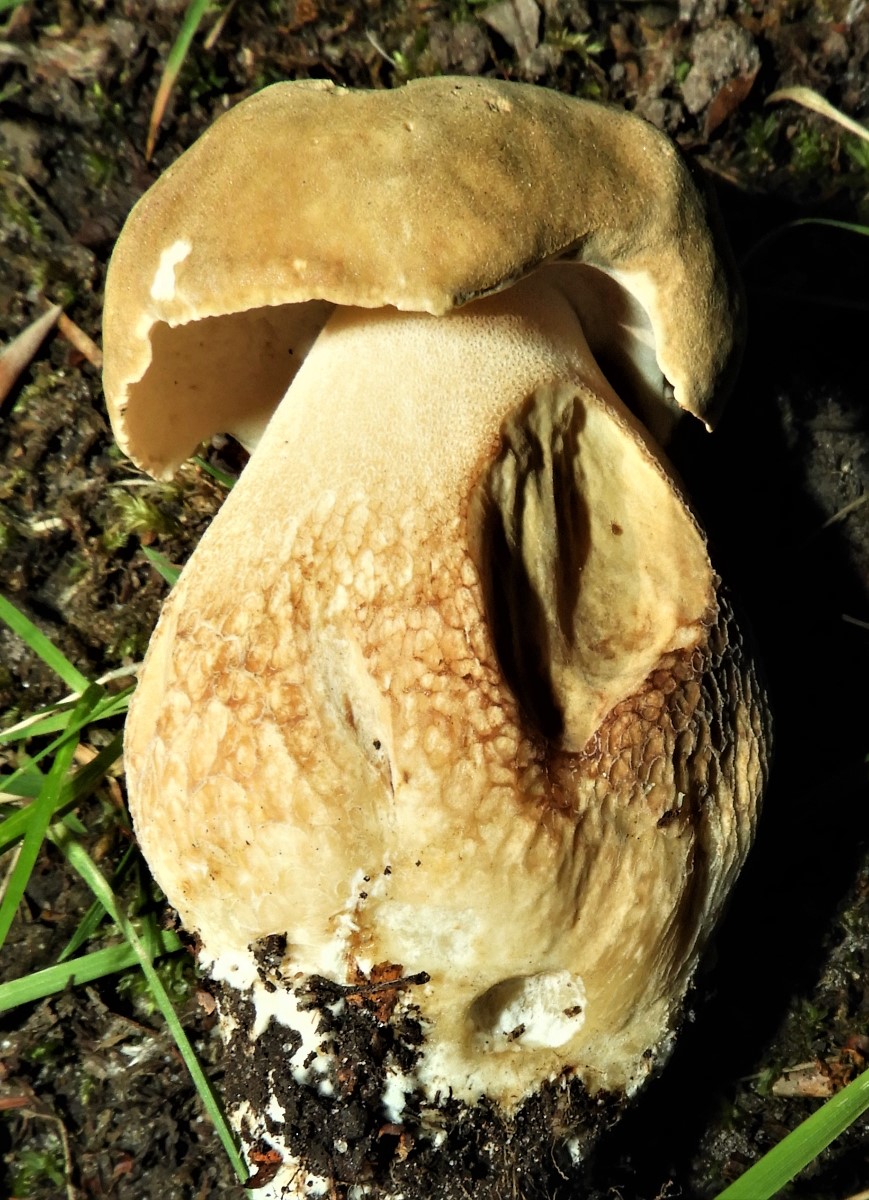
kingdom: Fungi
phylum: Basidiomycota
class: Agaricomycetes
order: Boletales
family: Boletaceae
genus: Boletus
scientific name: Boletus reticulatus
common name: sommer-rørhat
